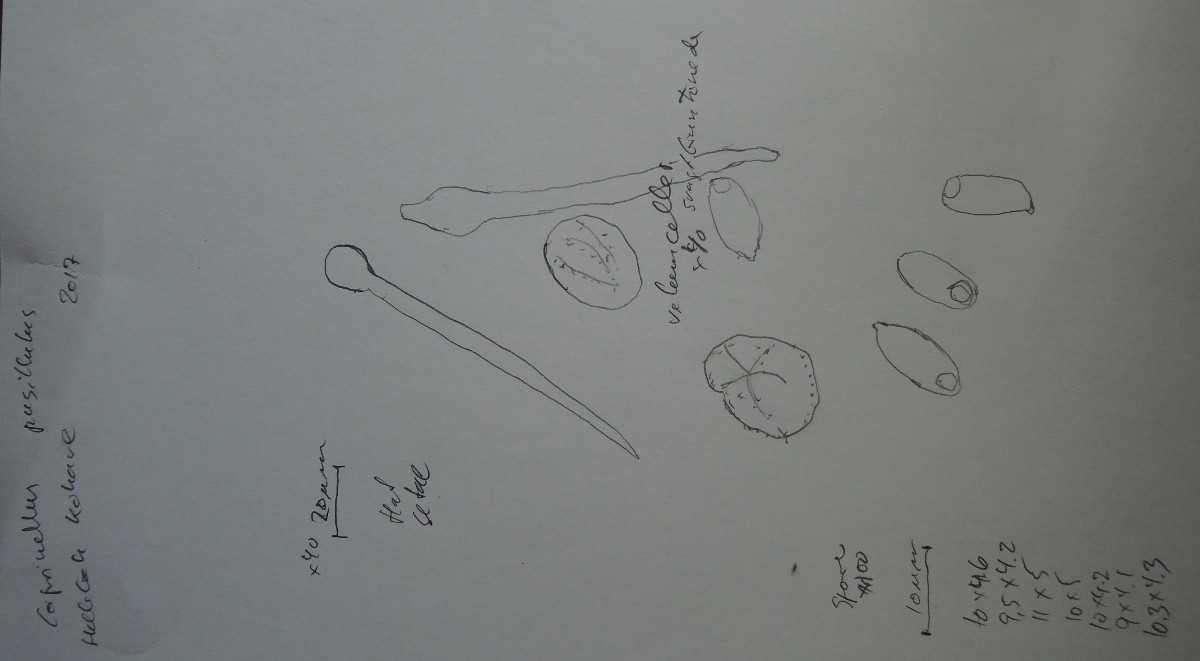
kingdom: Fungi
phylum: Basidiomycota
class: Agaricomycetes
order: Agaricales
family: Psathyrellaceae
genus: Coprinellus
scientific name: Coprinellus pusillulus
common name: lillebitte blækhat
